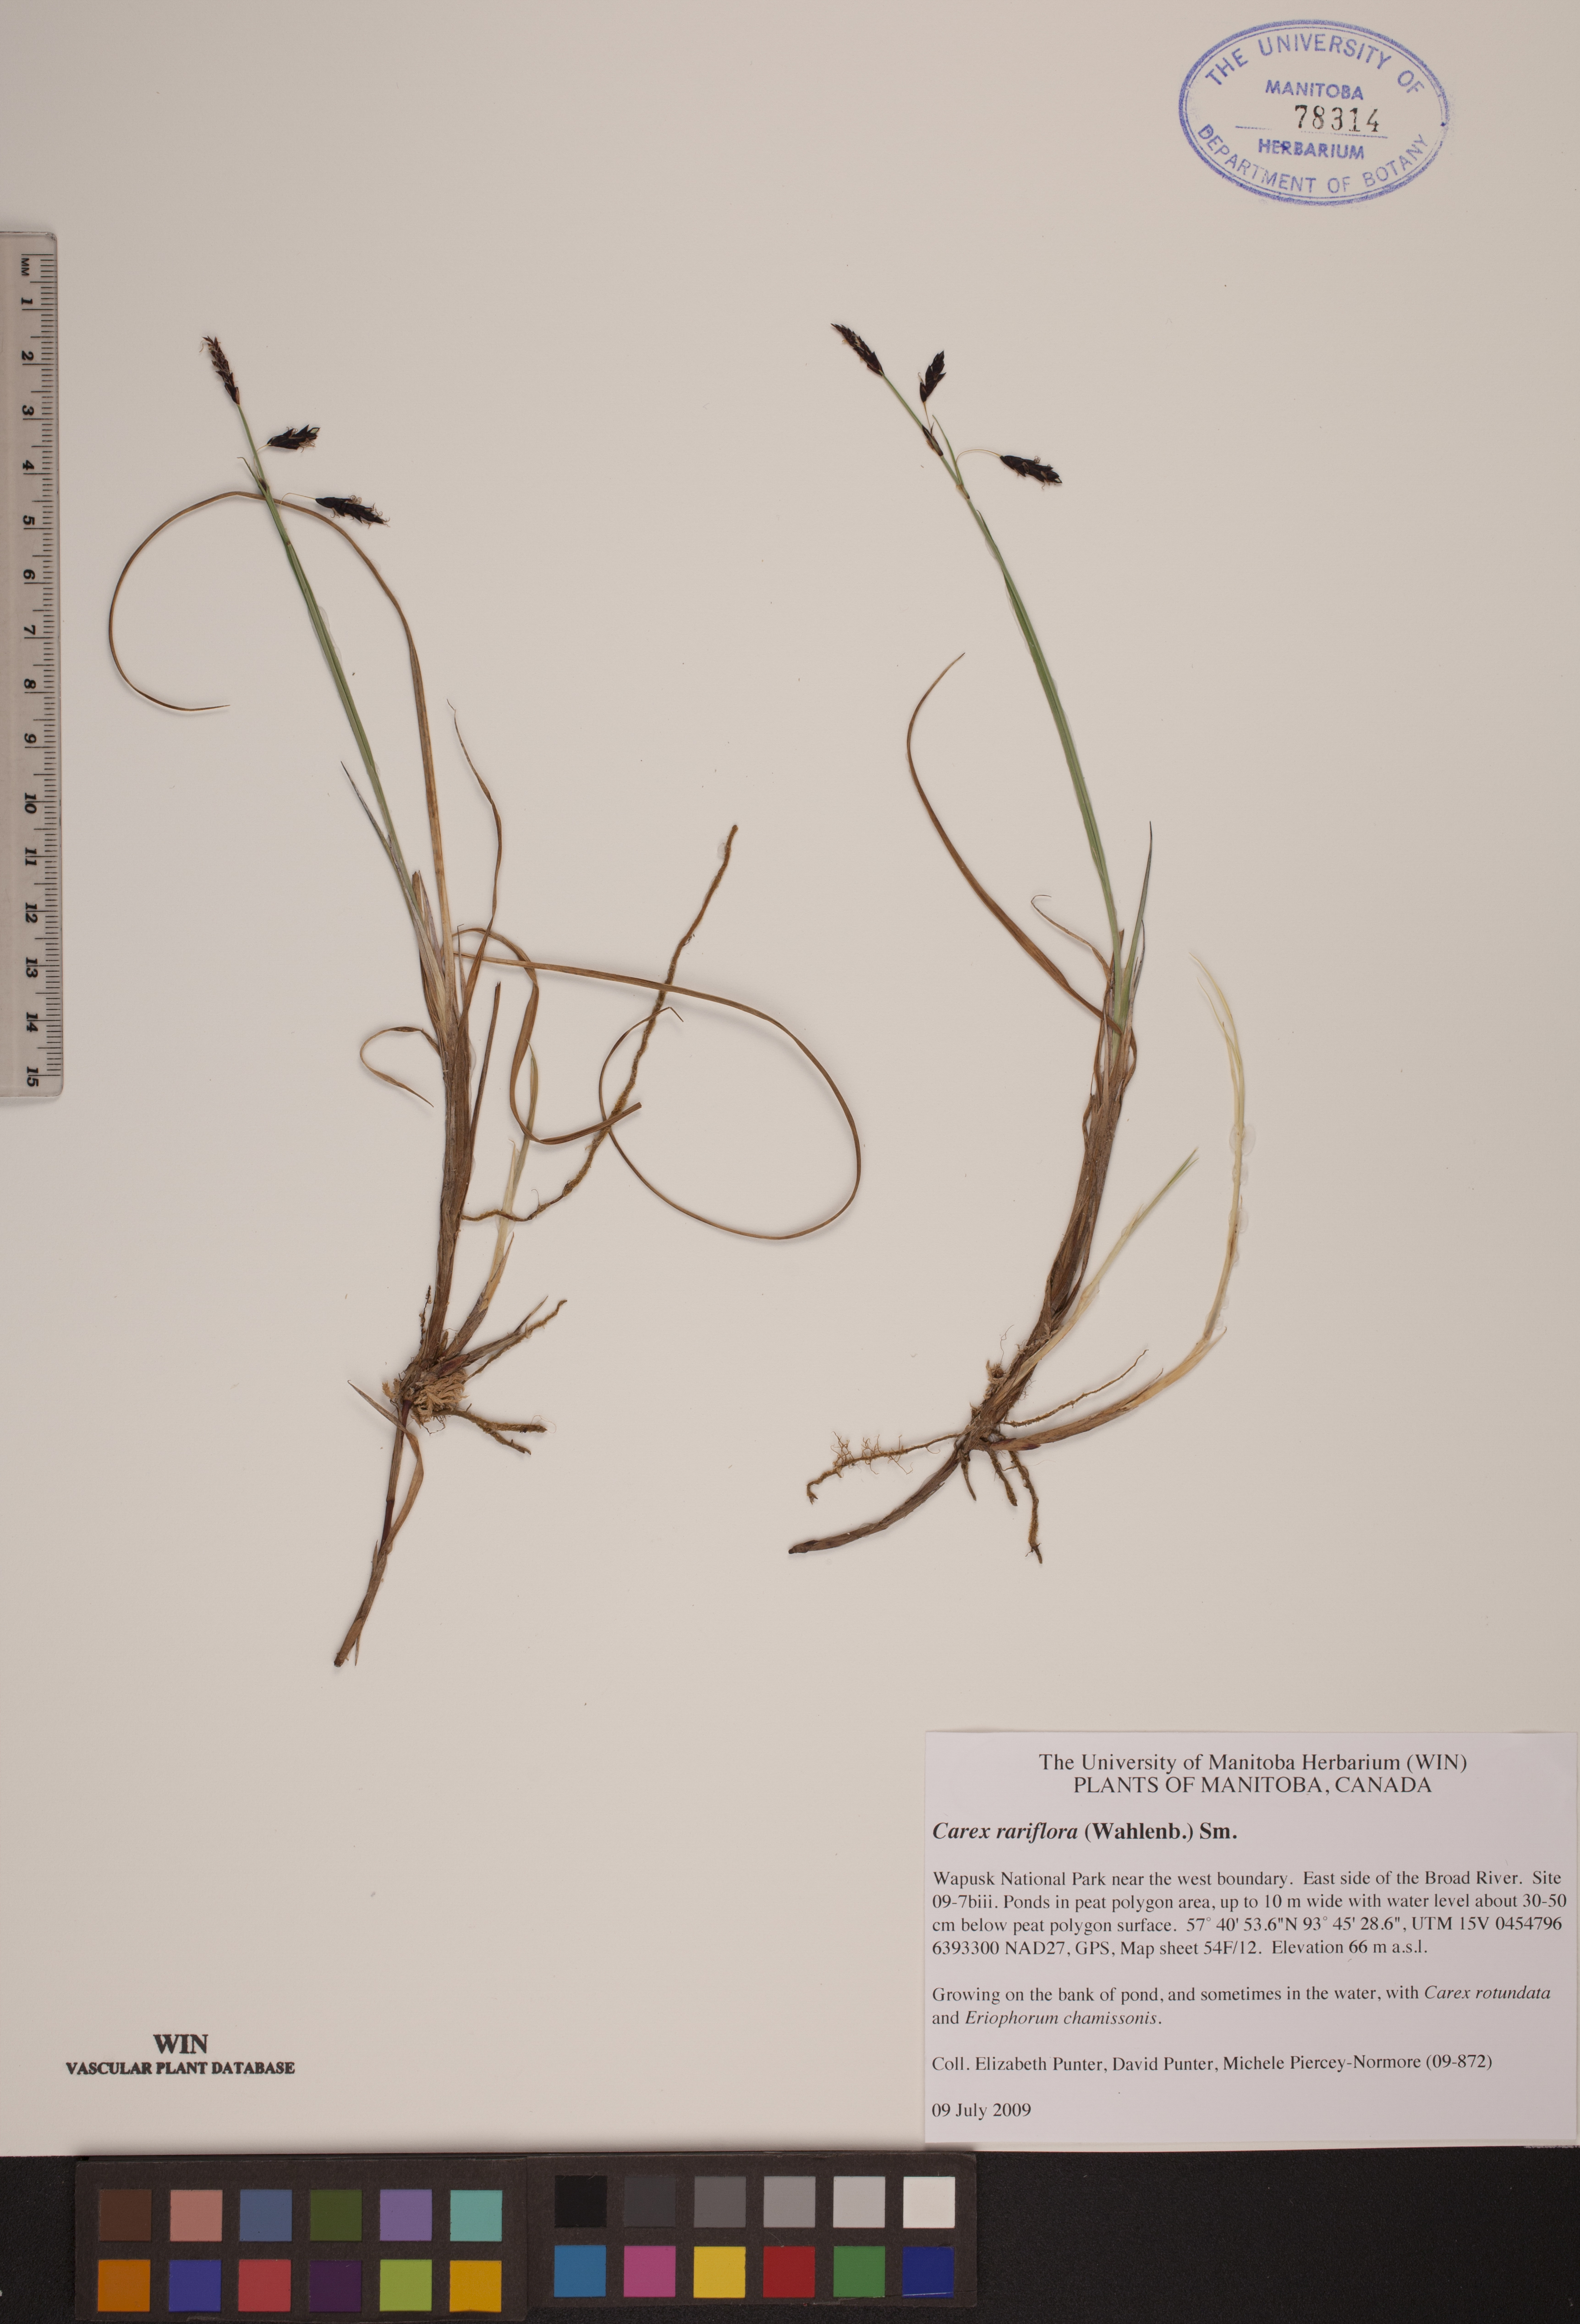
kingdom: Plantae
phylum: Tracheophyta
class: Liliopsida
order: Poales
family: Cyperaceae
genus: Carex
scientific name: Carex rariflora
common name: Loose-flowered alpine sedge
